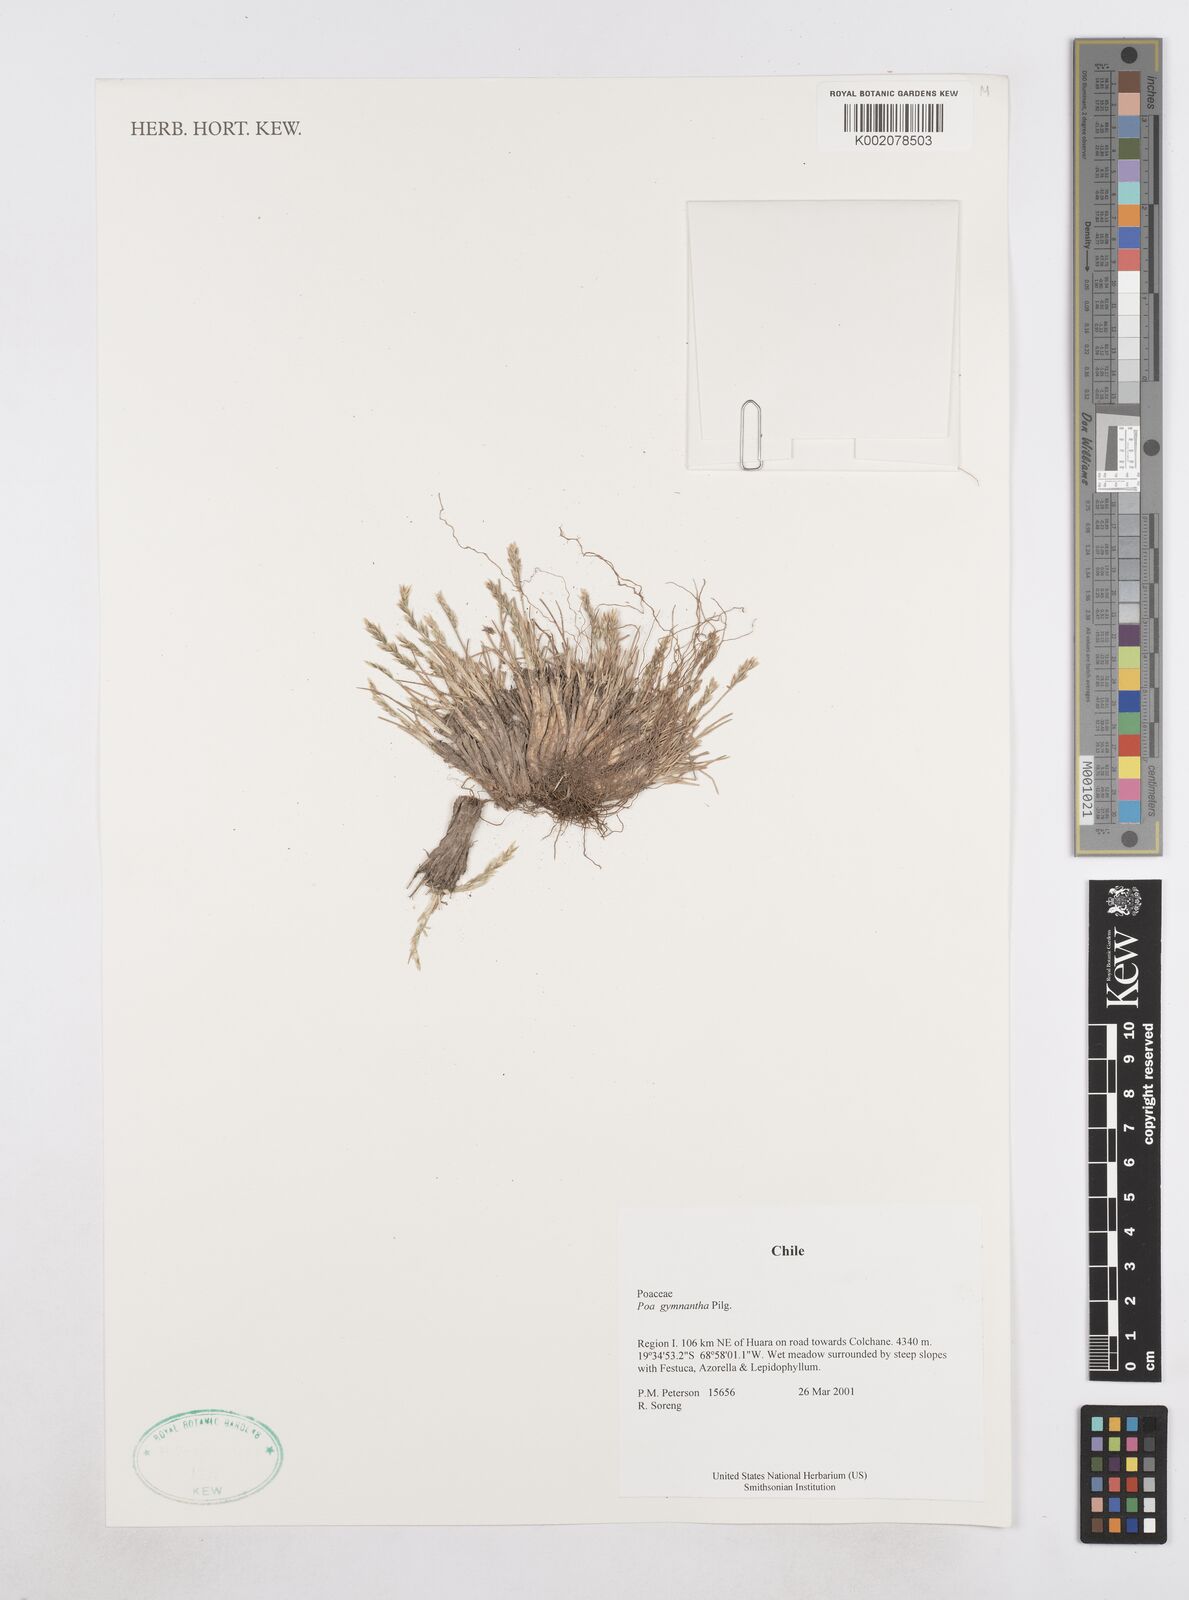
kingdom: Plantae
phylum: Tracheophyta
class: Liliopsida
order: Poales
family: Poaceae
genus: Poa
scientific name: Poa gymnantha
